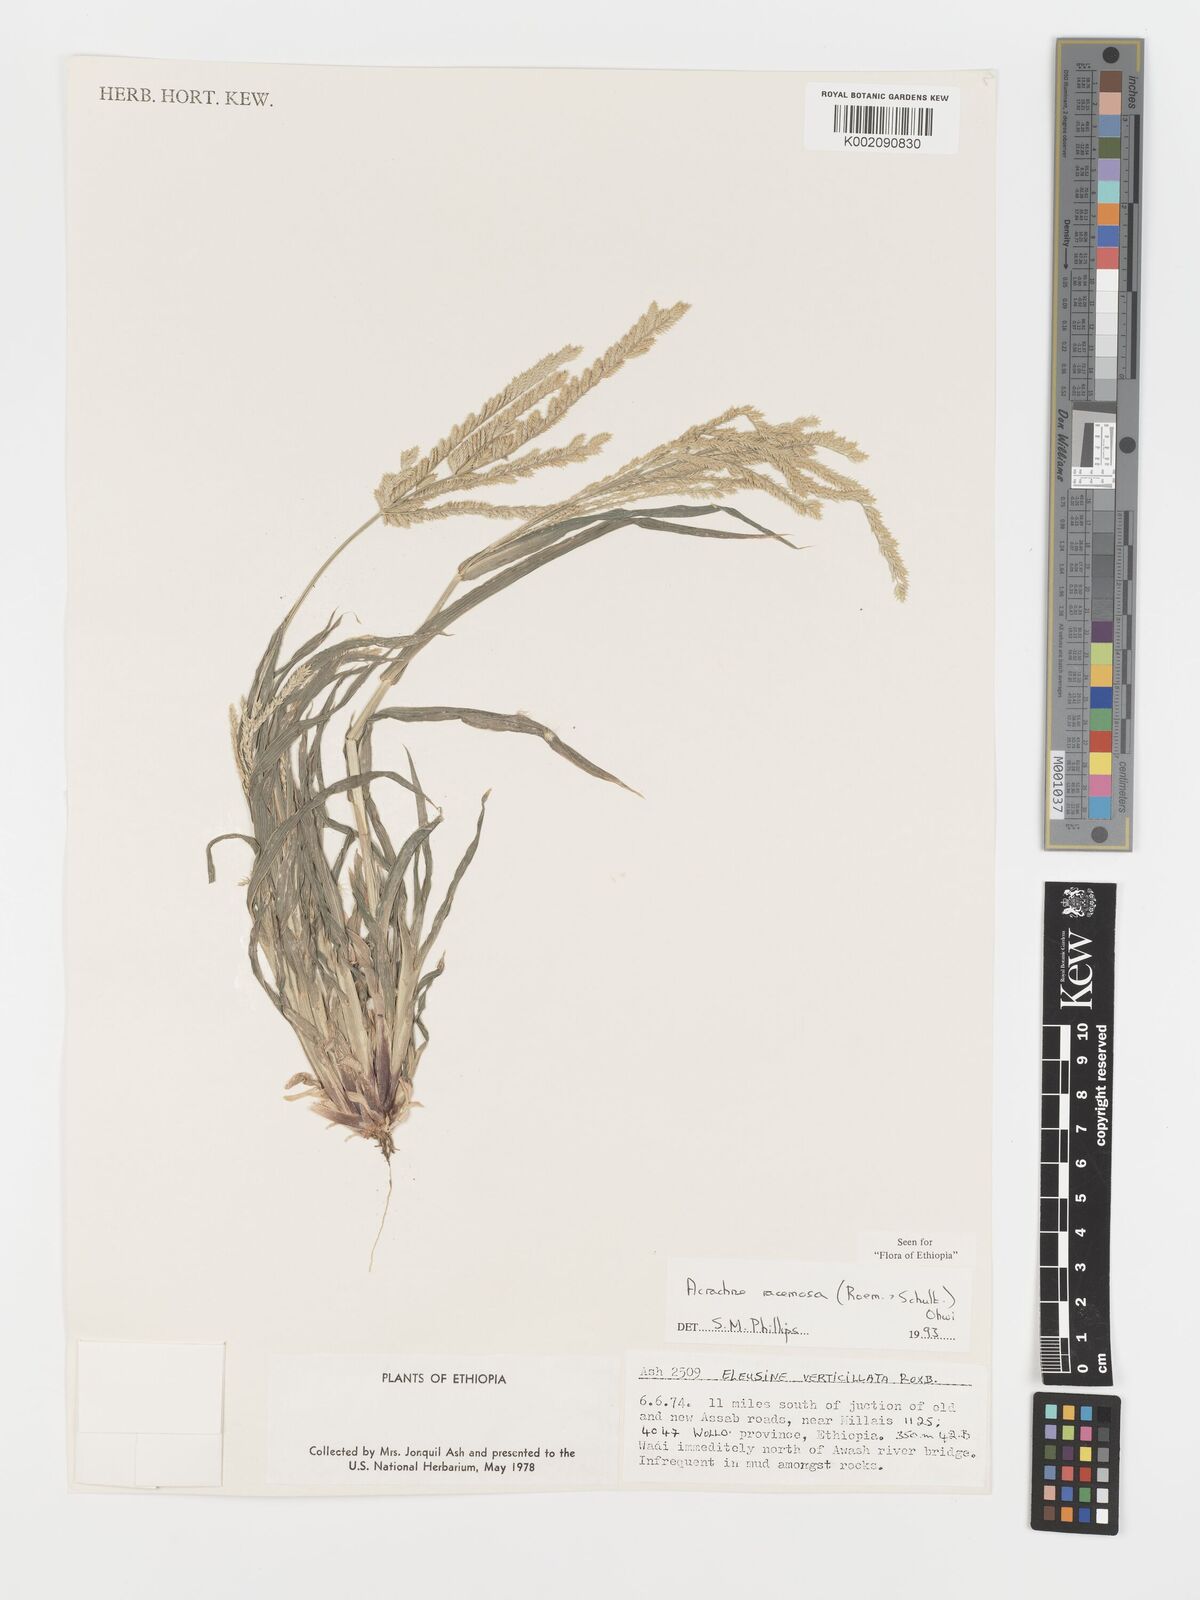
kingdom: Plantae
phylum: Tracheophyta
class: Liliopsida
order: Poales
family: Poaceae
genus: Acrachne
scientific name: Acrachne racemosa
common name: Goosegrass
